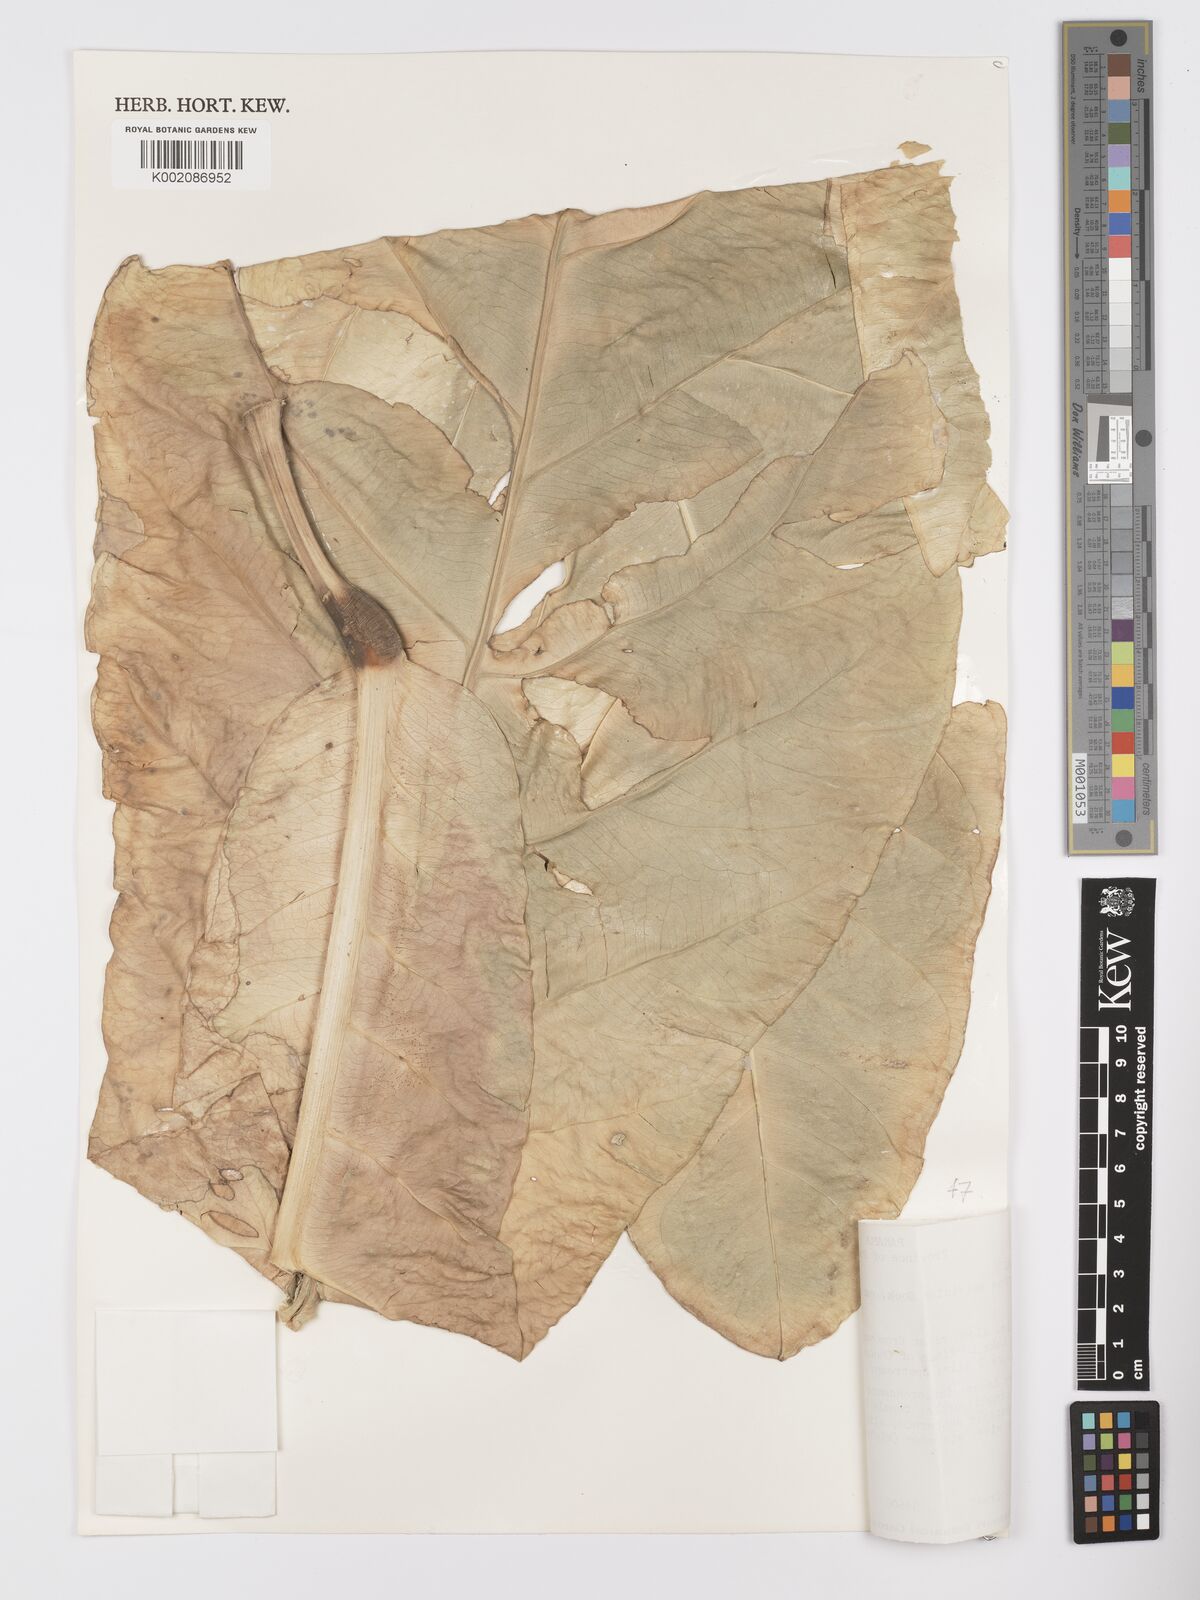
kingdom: Plantae
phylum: Tracheophyta
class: Liliopsida
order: Alismatales
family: Araceae
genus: Anthurium
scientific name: Anthurium salvinii
